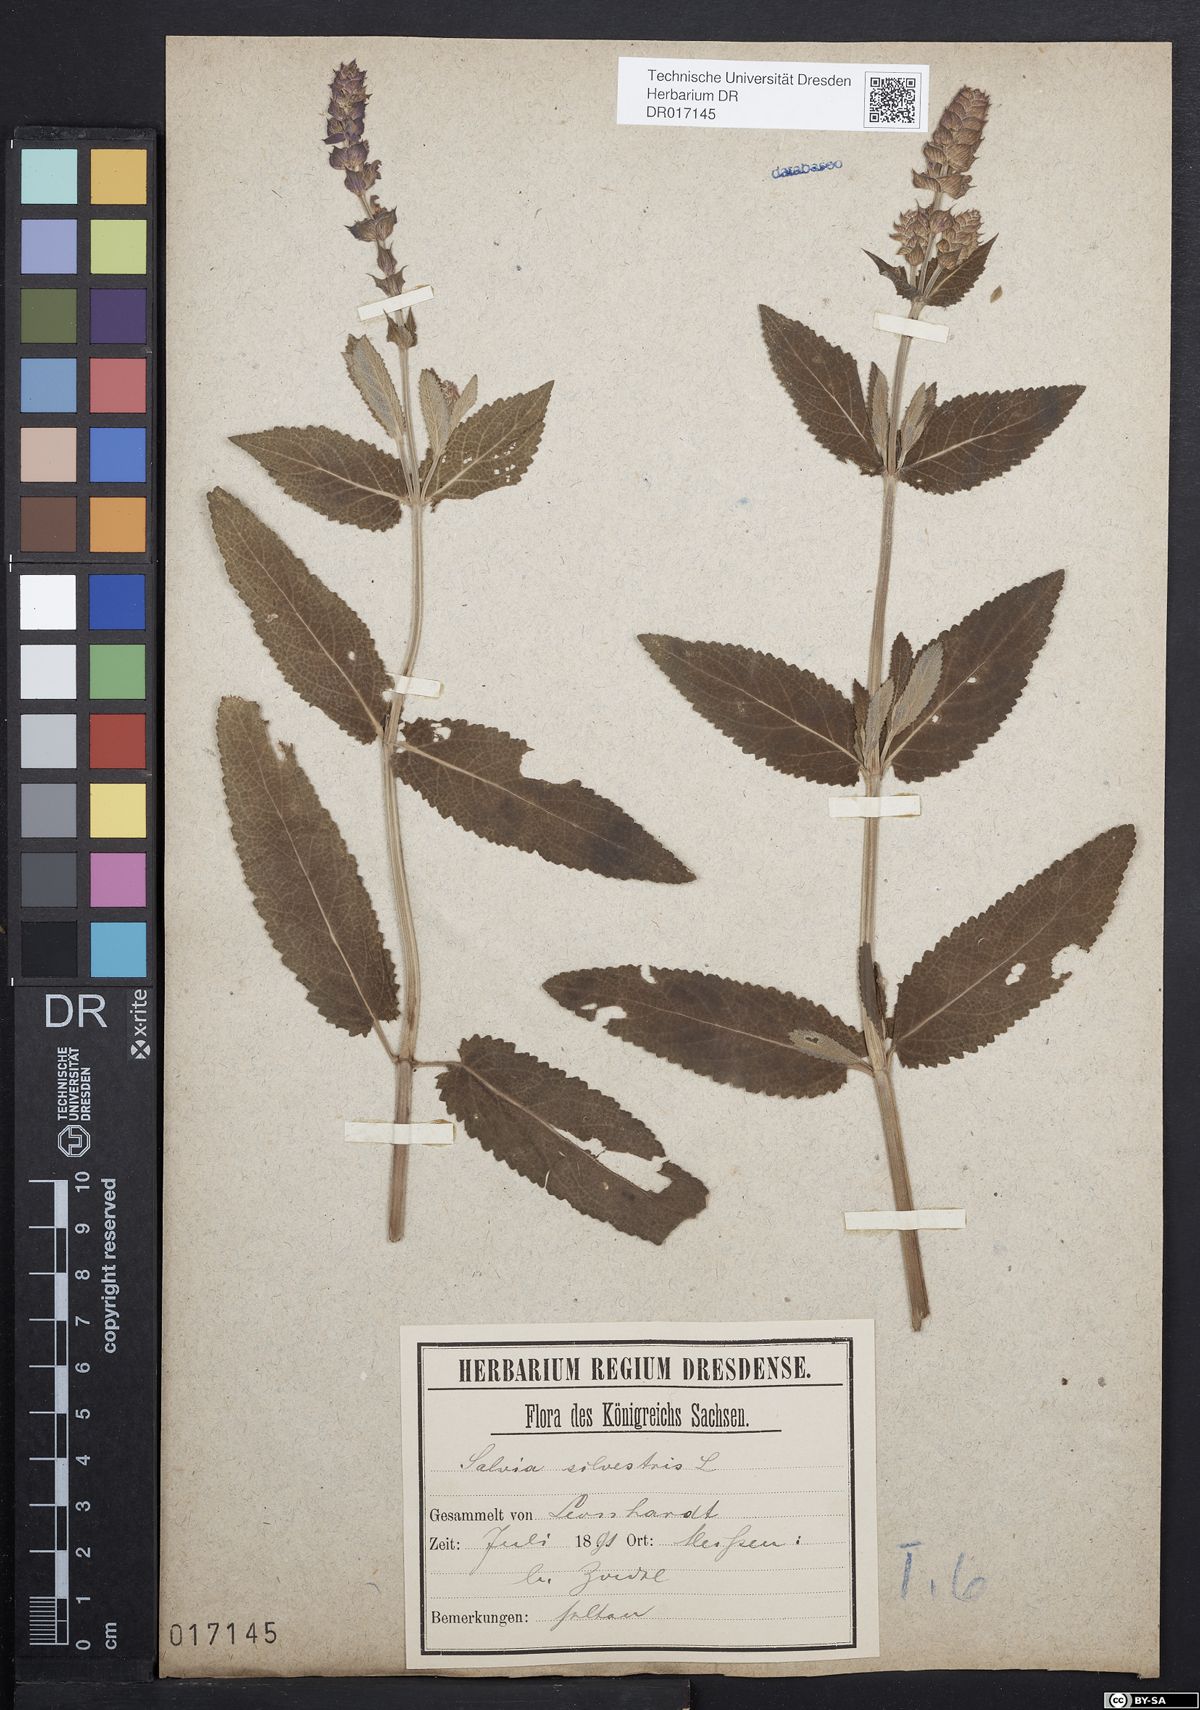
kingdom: Plantae
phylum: Tracheophyta
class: Magnoliopsida
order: Lamiales
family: Lamiaceae
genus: Salvia
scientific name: Salvia nemorosa
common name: Balkan clary
